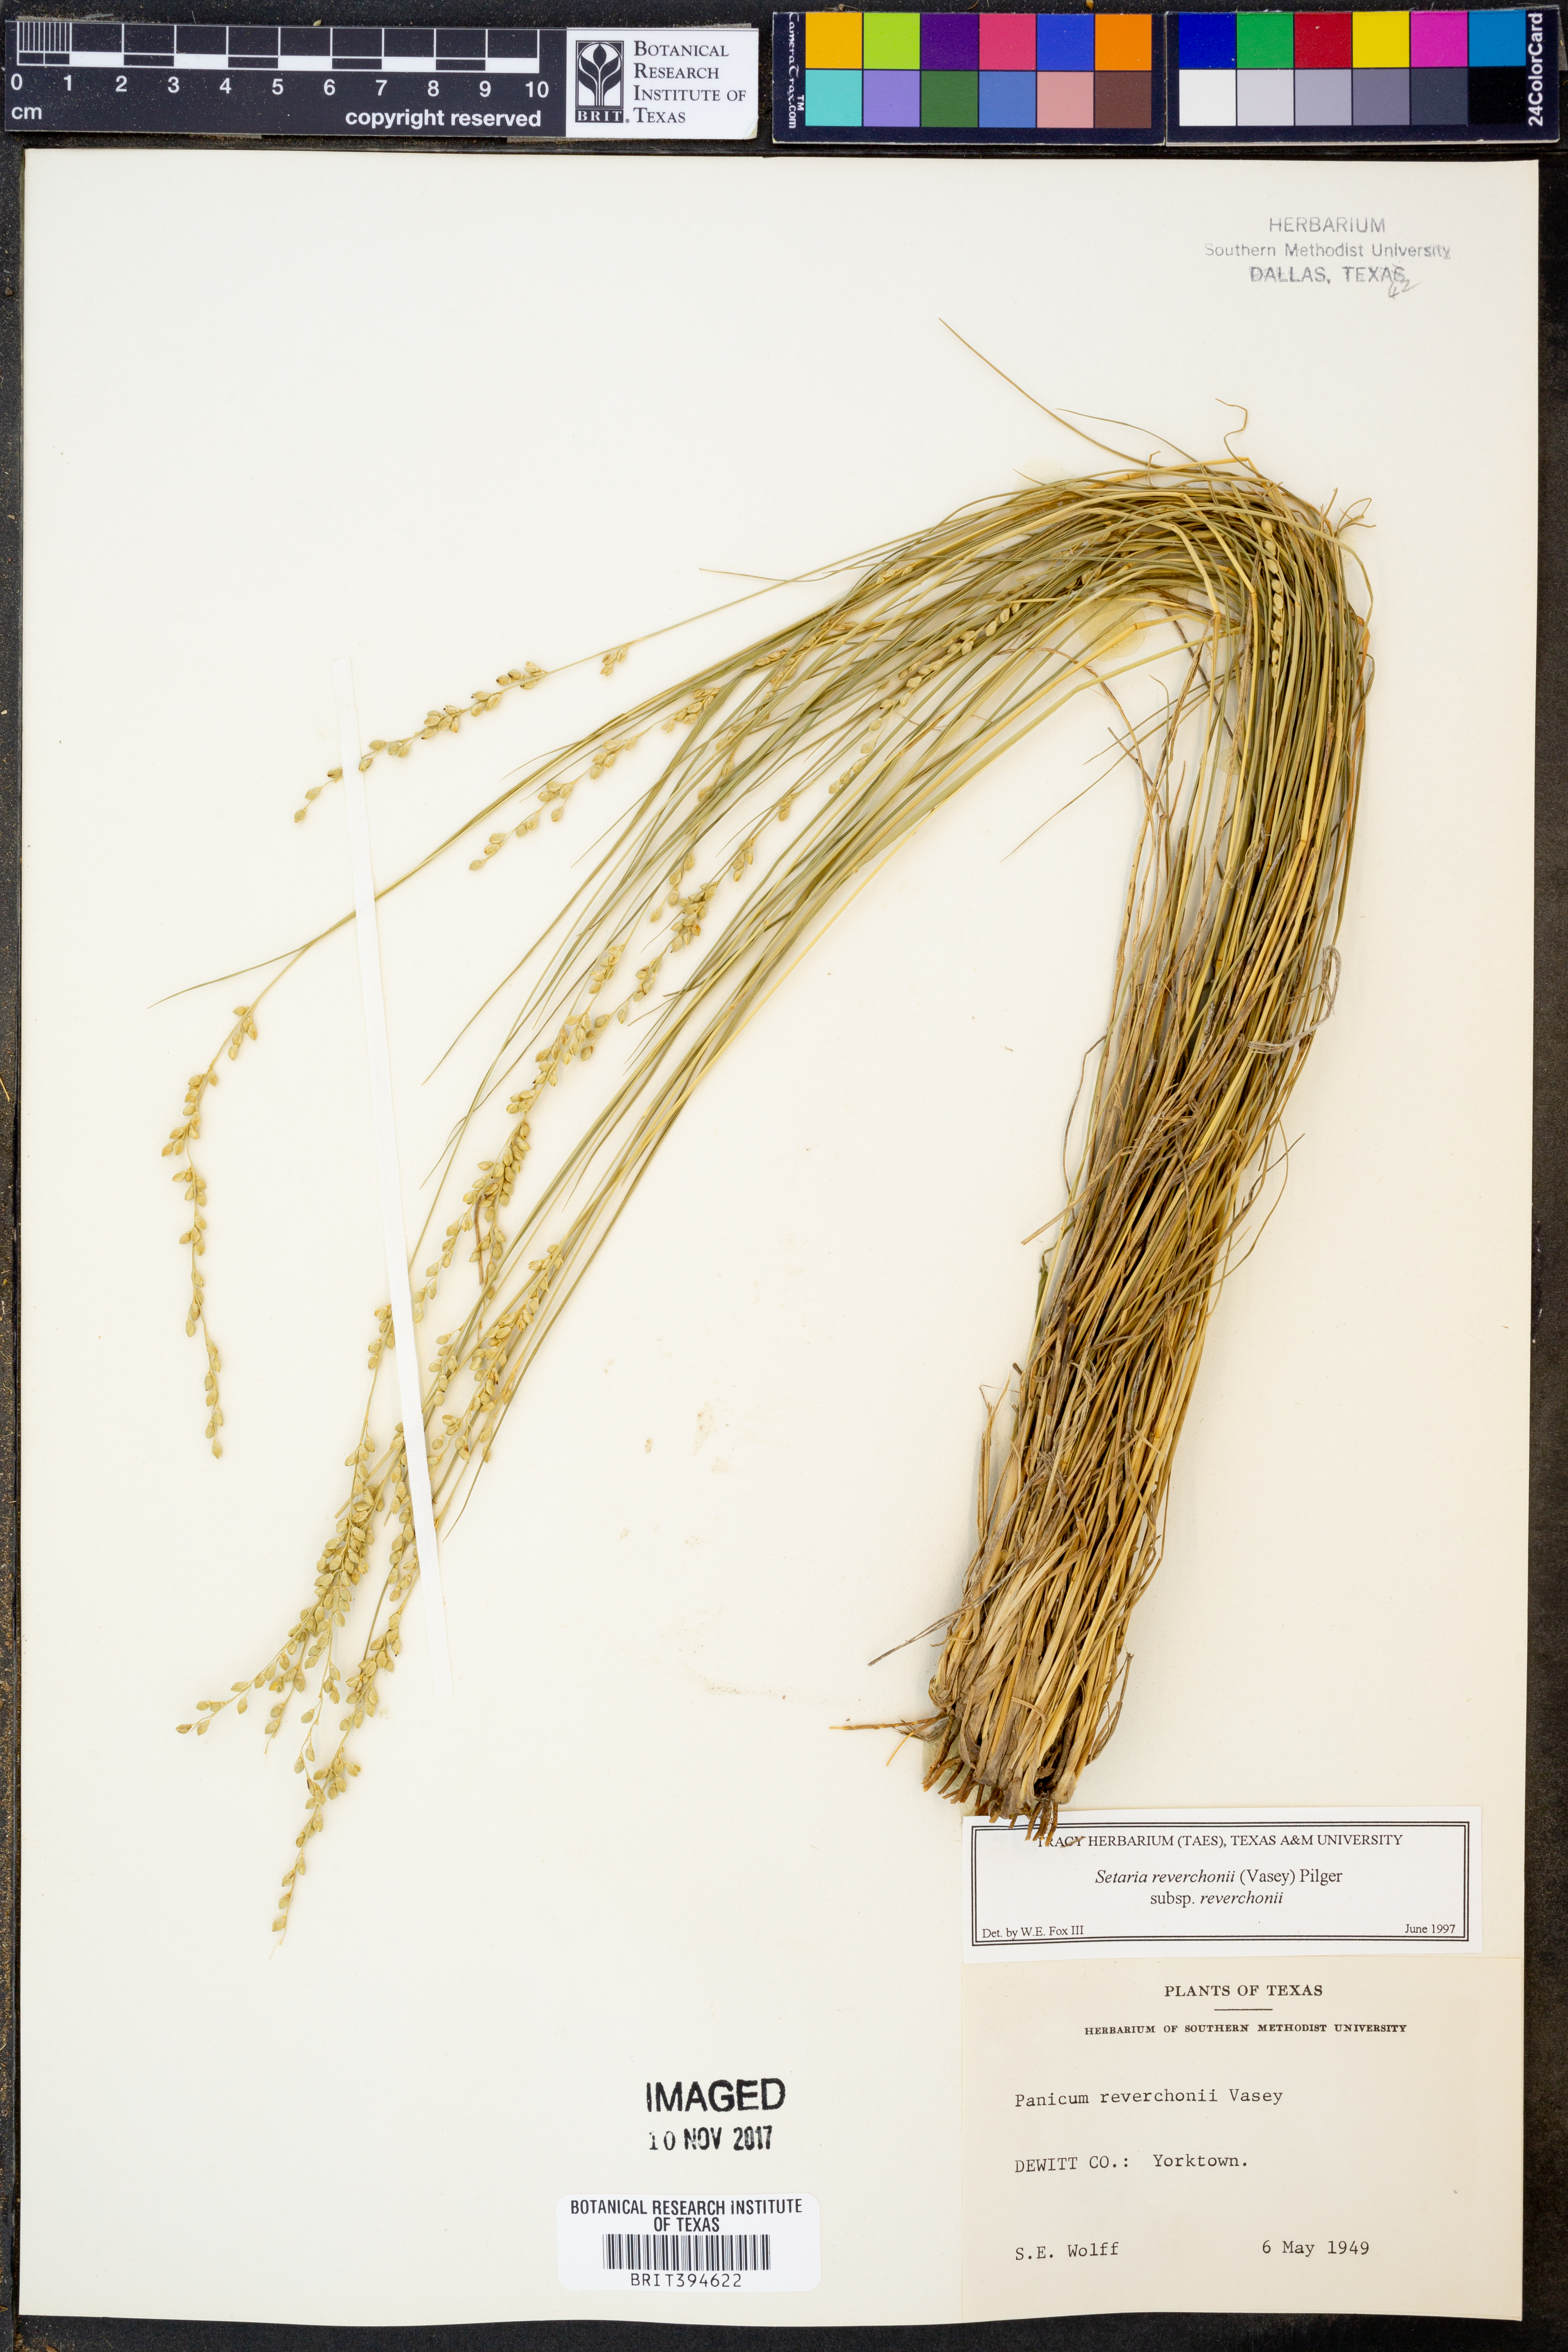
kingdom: Plantae
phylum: Tracheophyta
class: Liliopsida
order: Poales
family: Poaceae
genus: Setaria
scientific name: Setaria reverchonii
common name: Reverchon's bristle grass
